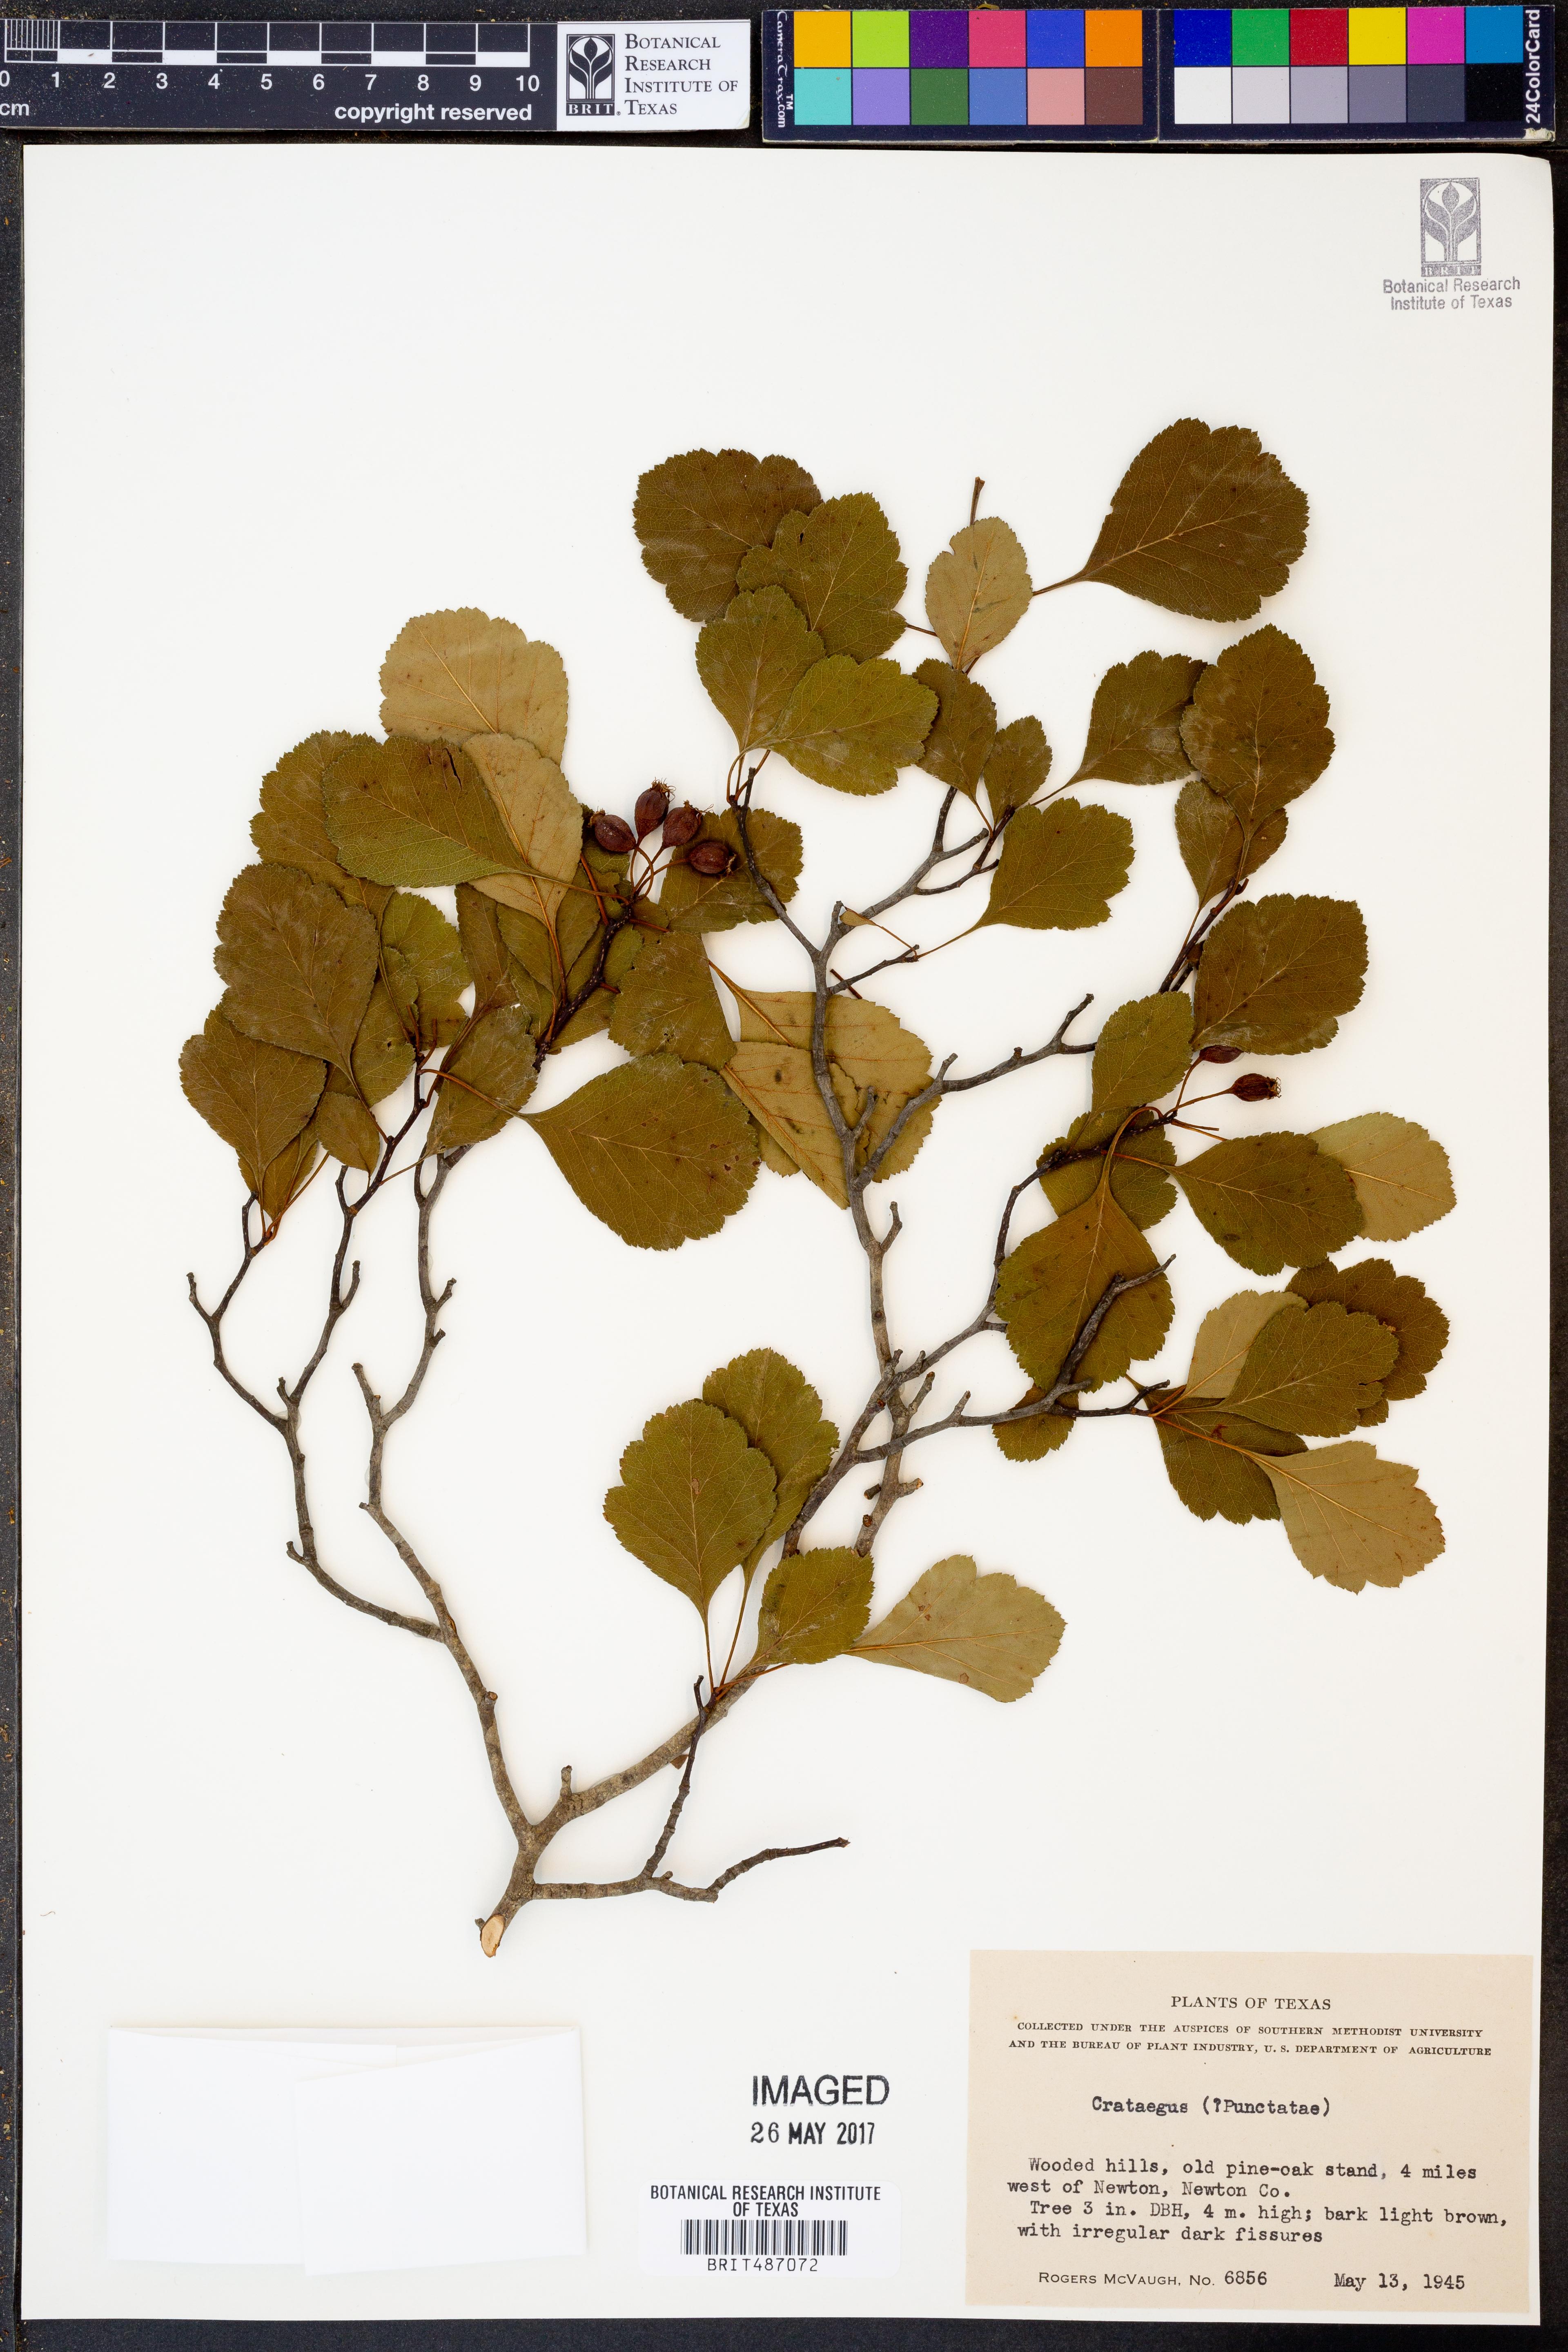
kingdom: Plantae
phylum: Tracheophyta
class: Magnoliopsida
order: Rosales
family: Rosaceae
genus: Crataegus
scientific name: Crataegus punctata
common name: Dotted hawthorn
